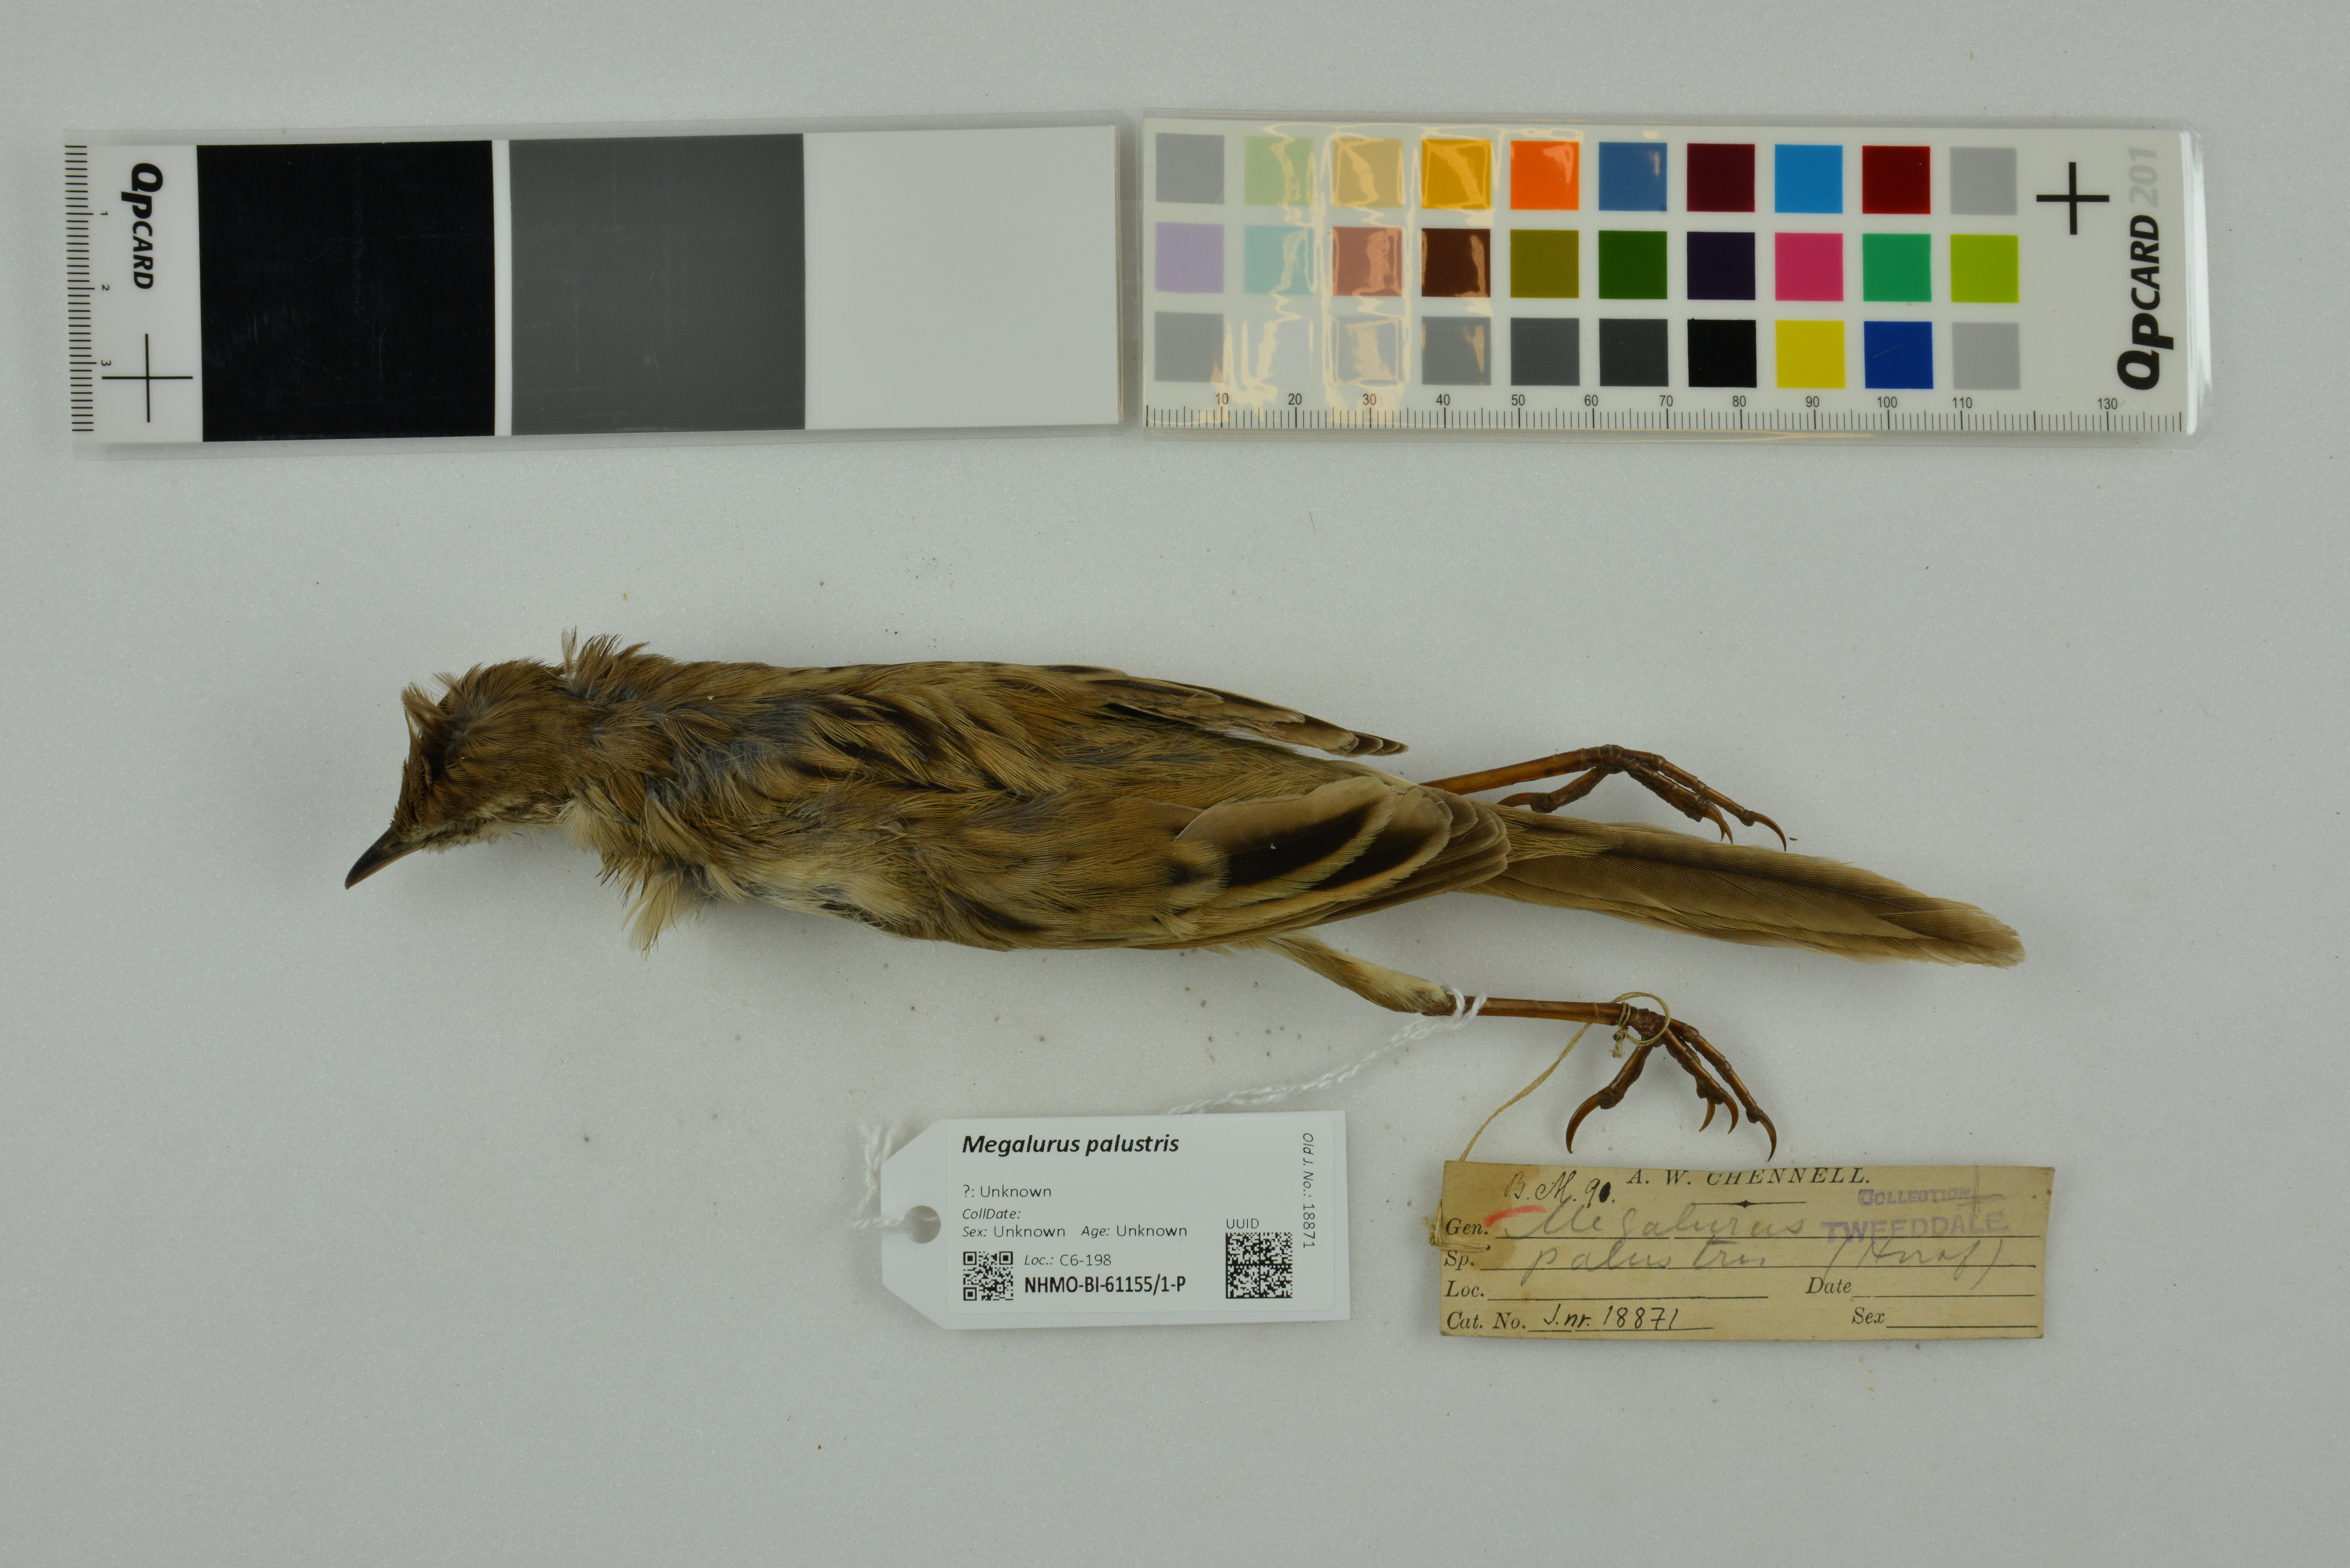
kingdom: Animalia
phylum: Chordata
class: Aves
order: Passeriformes
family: Locustellidae
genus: Megalurus
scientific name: Megalurus palustris
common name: Striated grassbird
